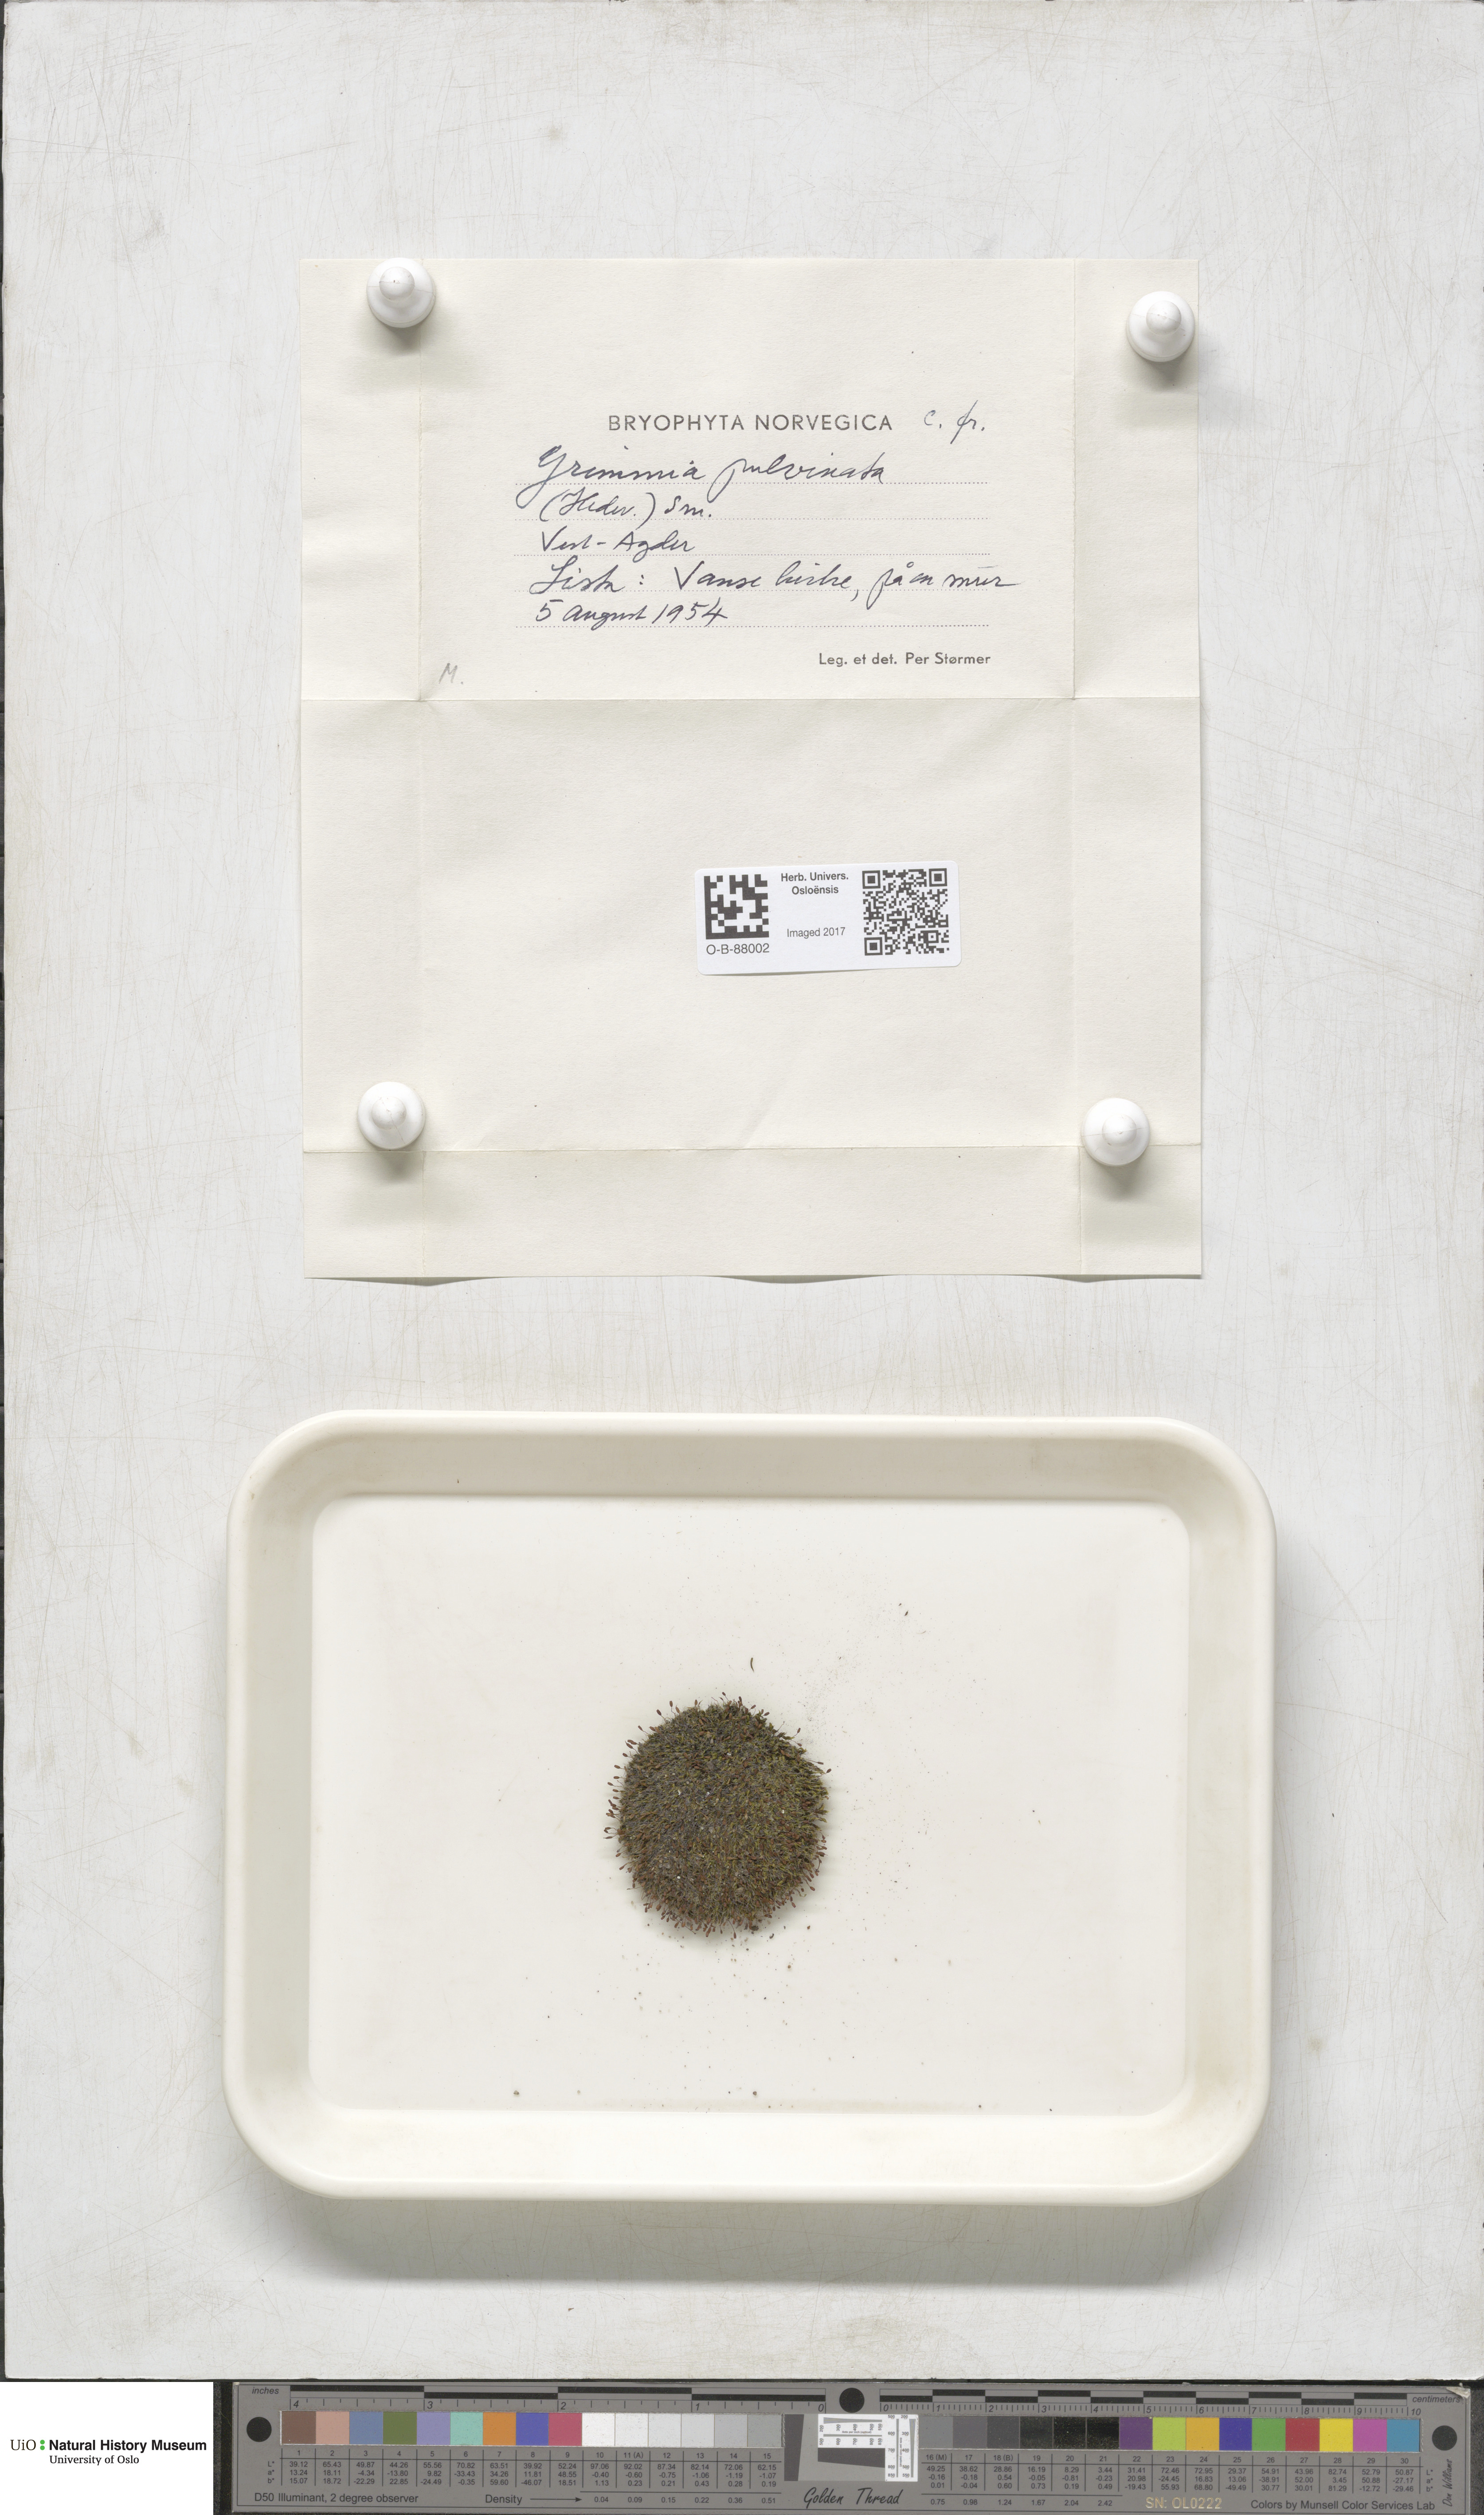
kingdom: Plantae
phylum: Bryophyta
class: Bryopsida
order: Grimmiales
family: Grimmiaceae
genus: Grimmia
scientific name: Grimmia pulvinata
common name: Grey-cushioned grimmia
